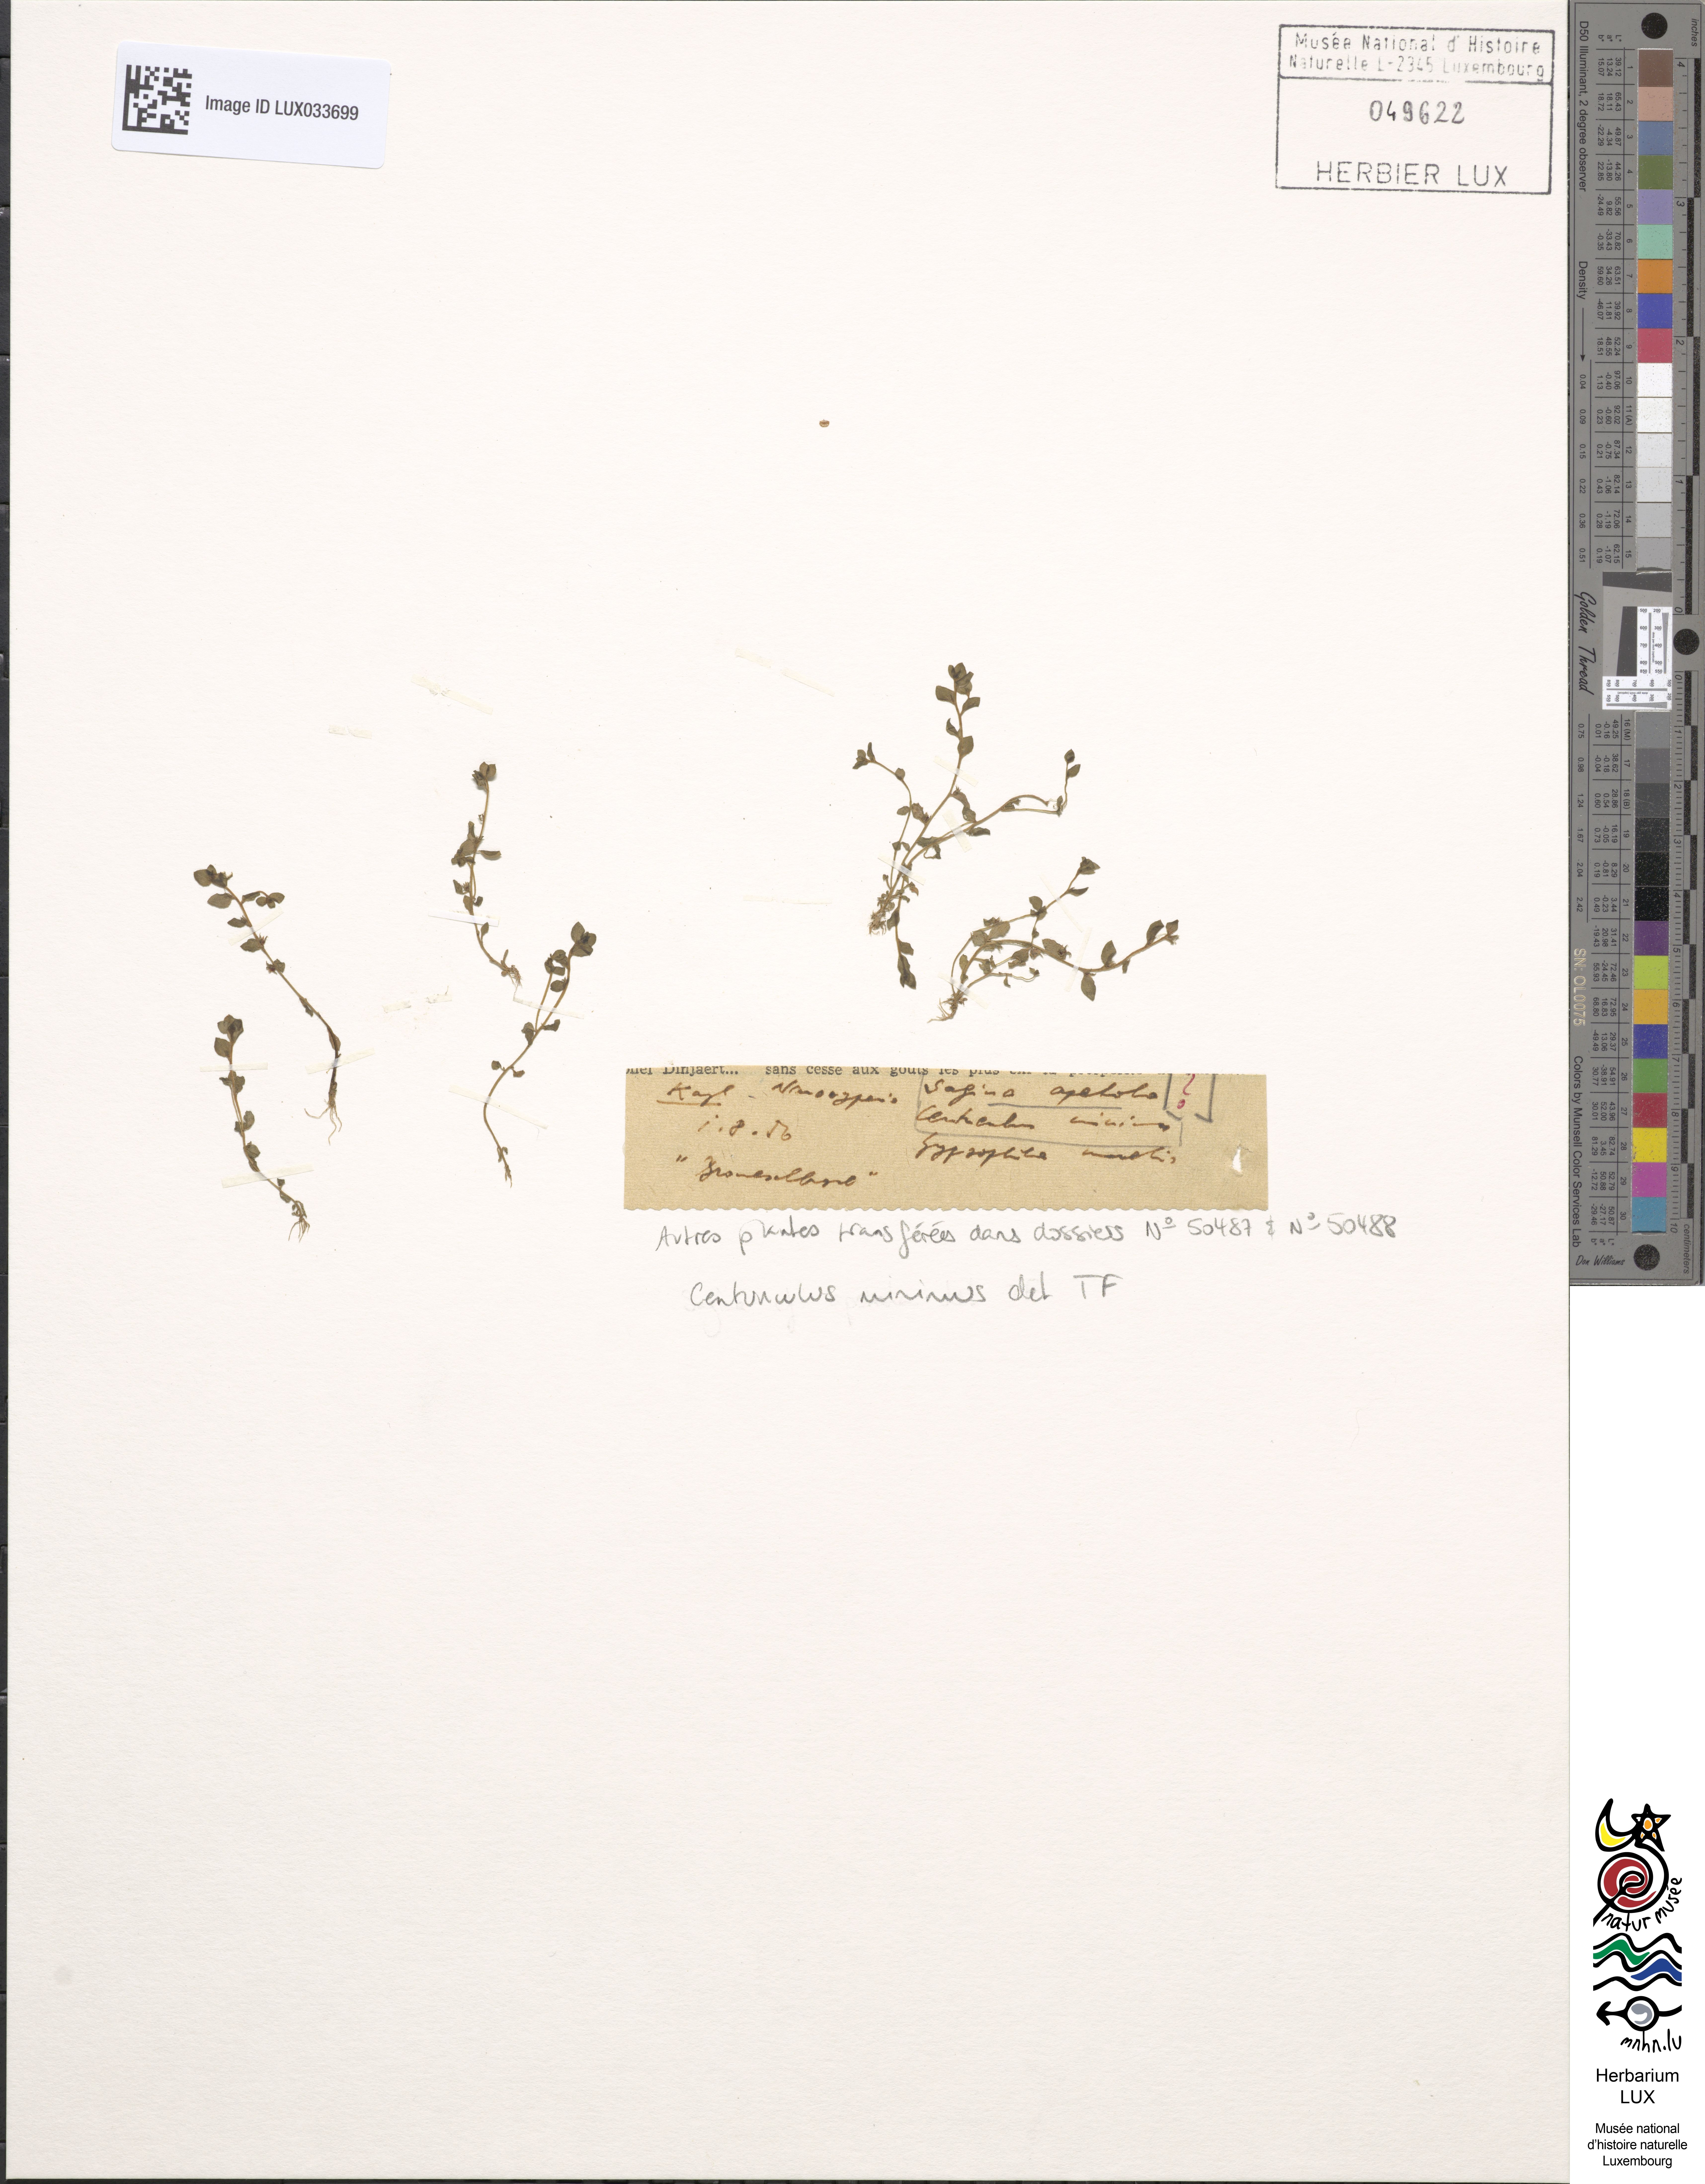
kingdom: Plantae
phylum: Tracheophyta
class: Magnoliopsida
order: Ericales
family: Primulaceae
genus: Lysimachia
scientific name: Lysimachia minima
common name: Chaffweed
